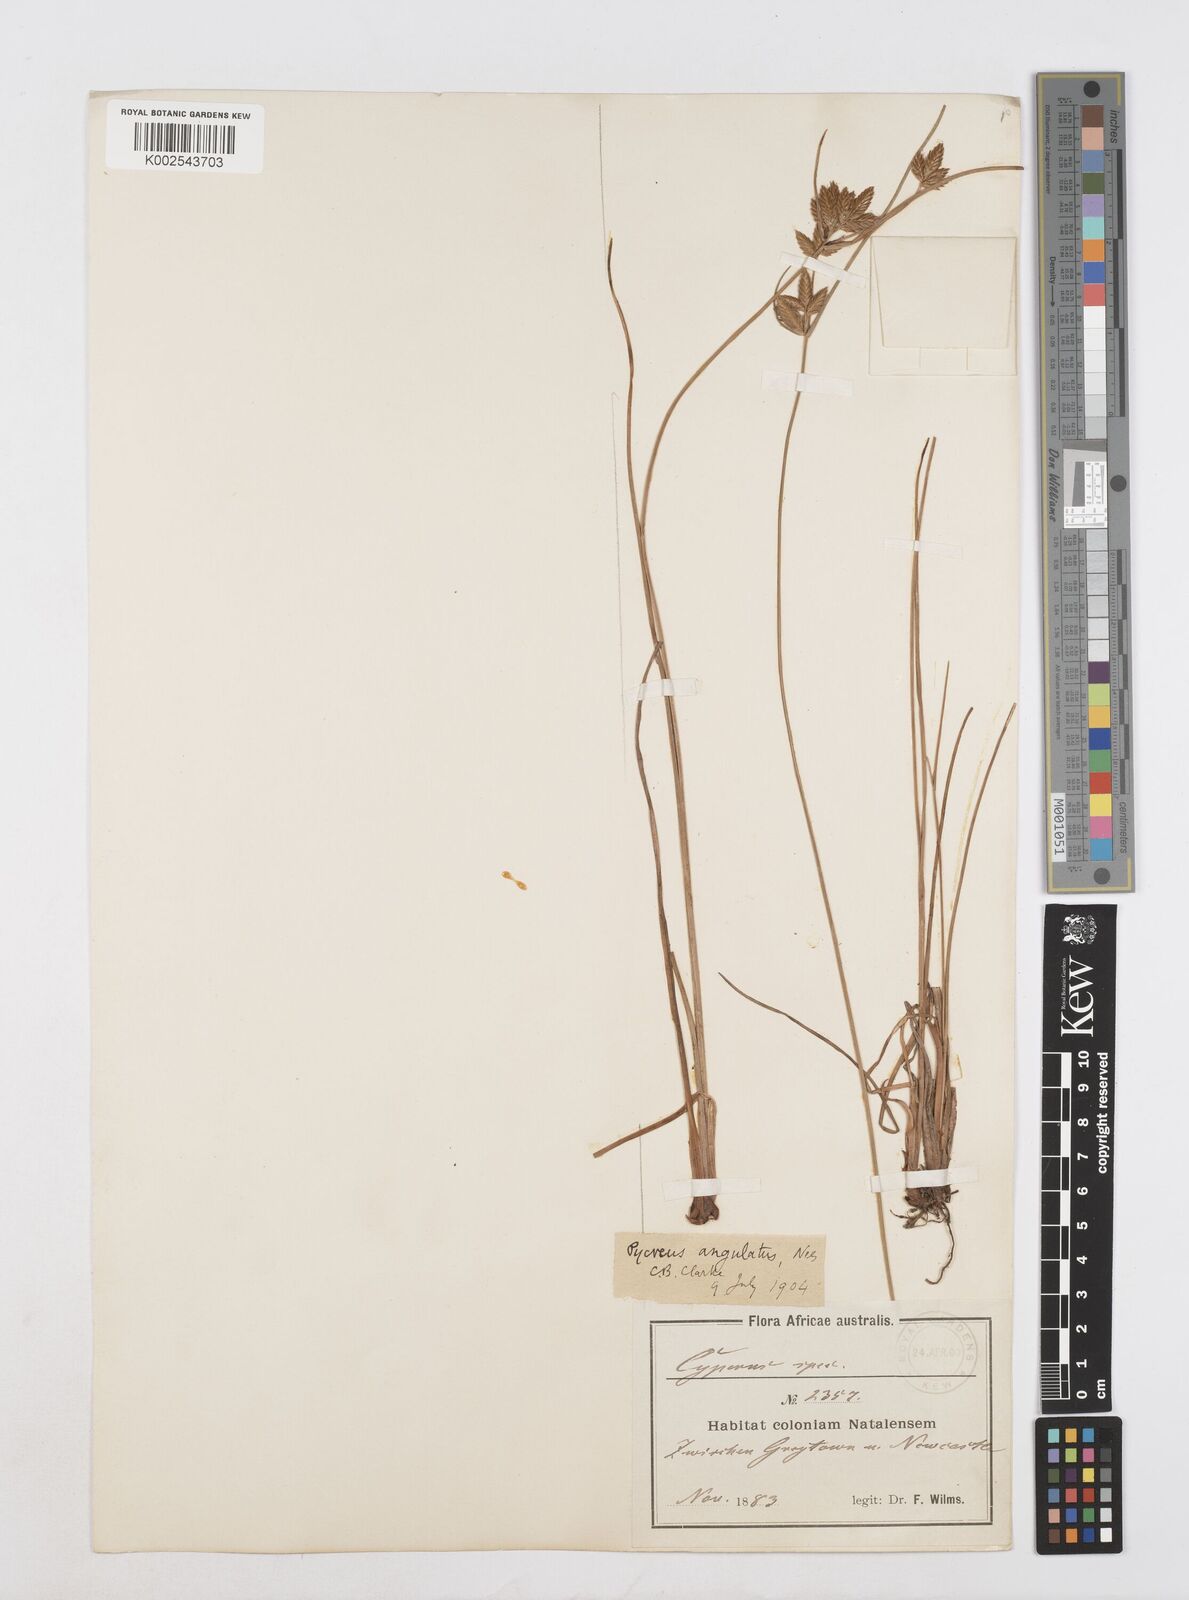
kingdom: Plantae
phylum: Tracheophyta
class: Liliopsida
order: Poales
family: Cyperaceae
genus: Cyperus
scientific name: Cyperus unioloides
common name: Uniola flatsedge
